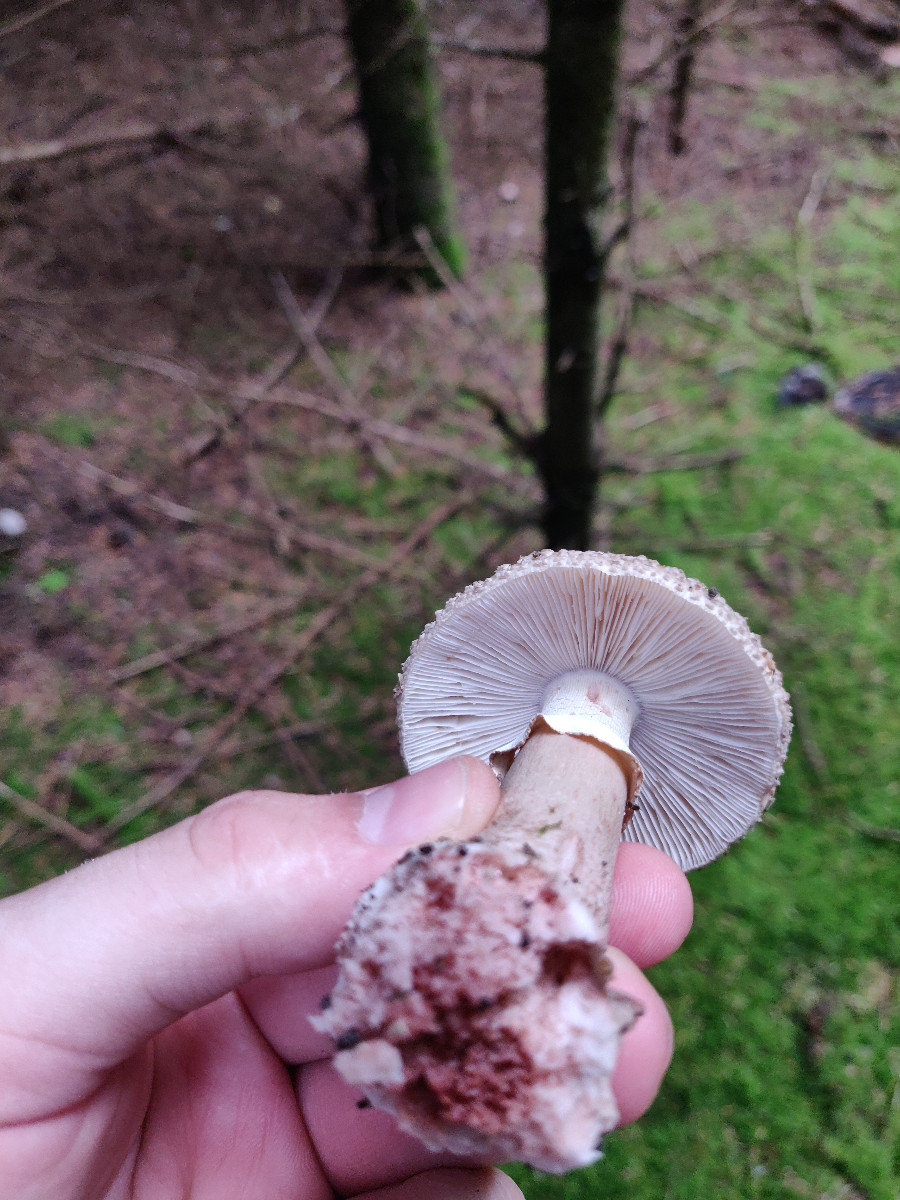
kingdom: Fungi
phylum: Basidiomycota
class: Agaricomycetes
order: Agaricales
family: Amanitaceae
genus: Amanita
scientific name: Amanita rubescens
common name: rødmende fluesvamp
